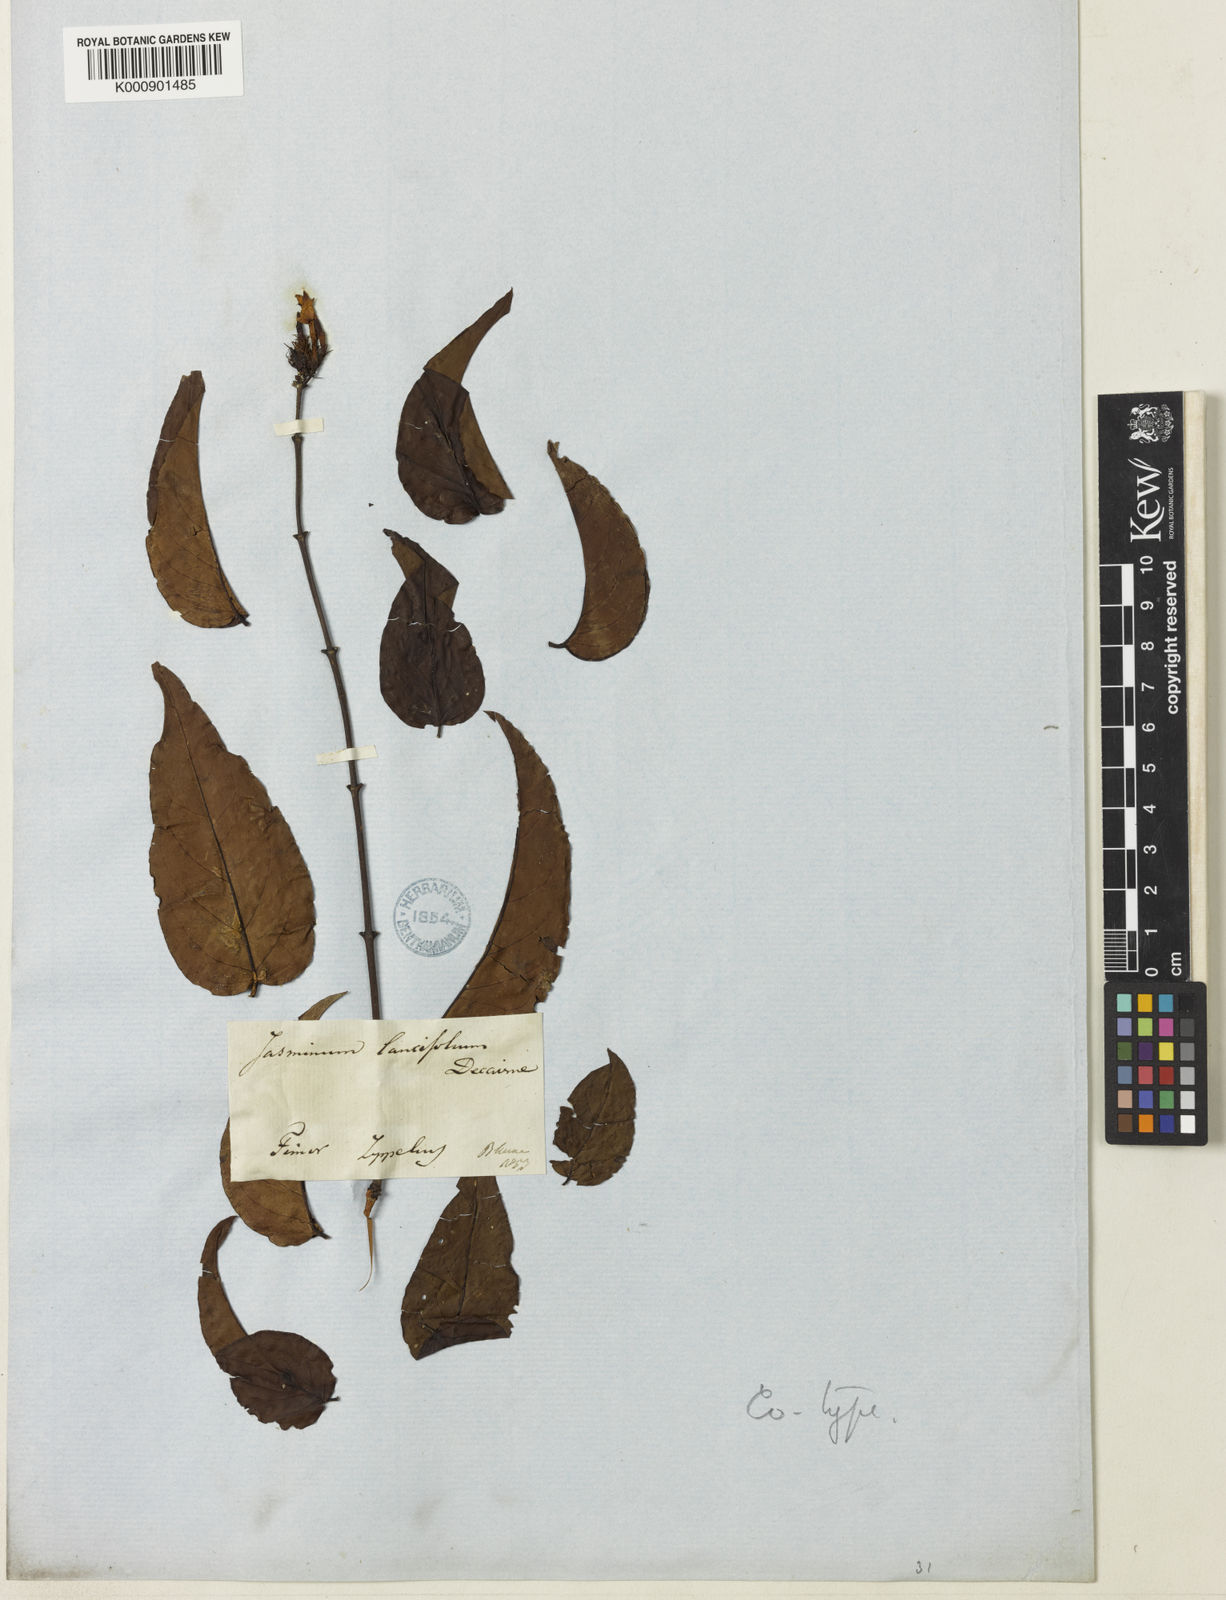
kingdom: Plantae
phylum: Tracheophyta
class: Magnoliopsida
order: Lamiales
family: Oleaceae
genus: Jasminum
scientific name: Jasminum elongatum
